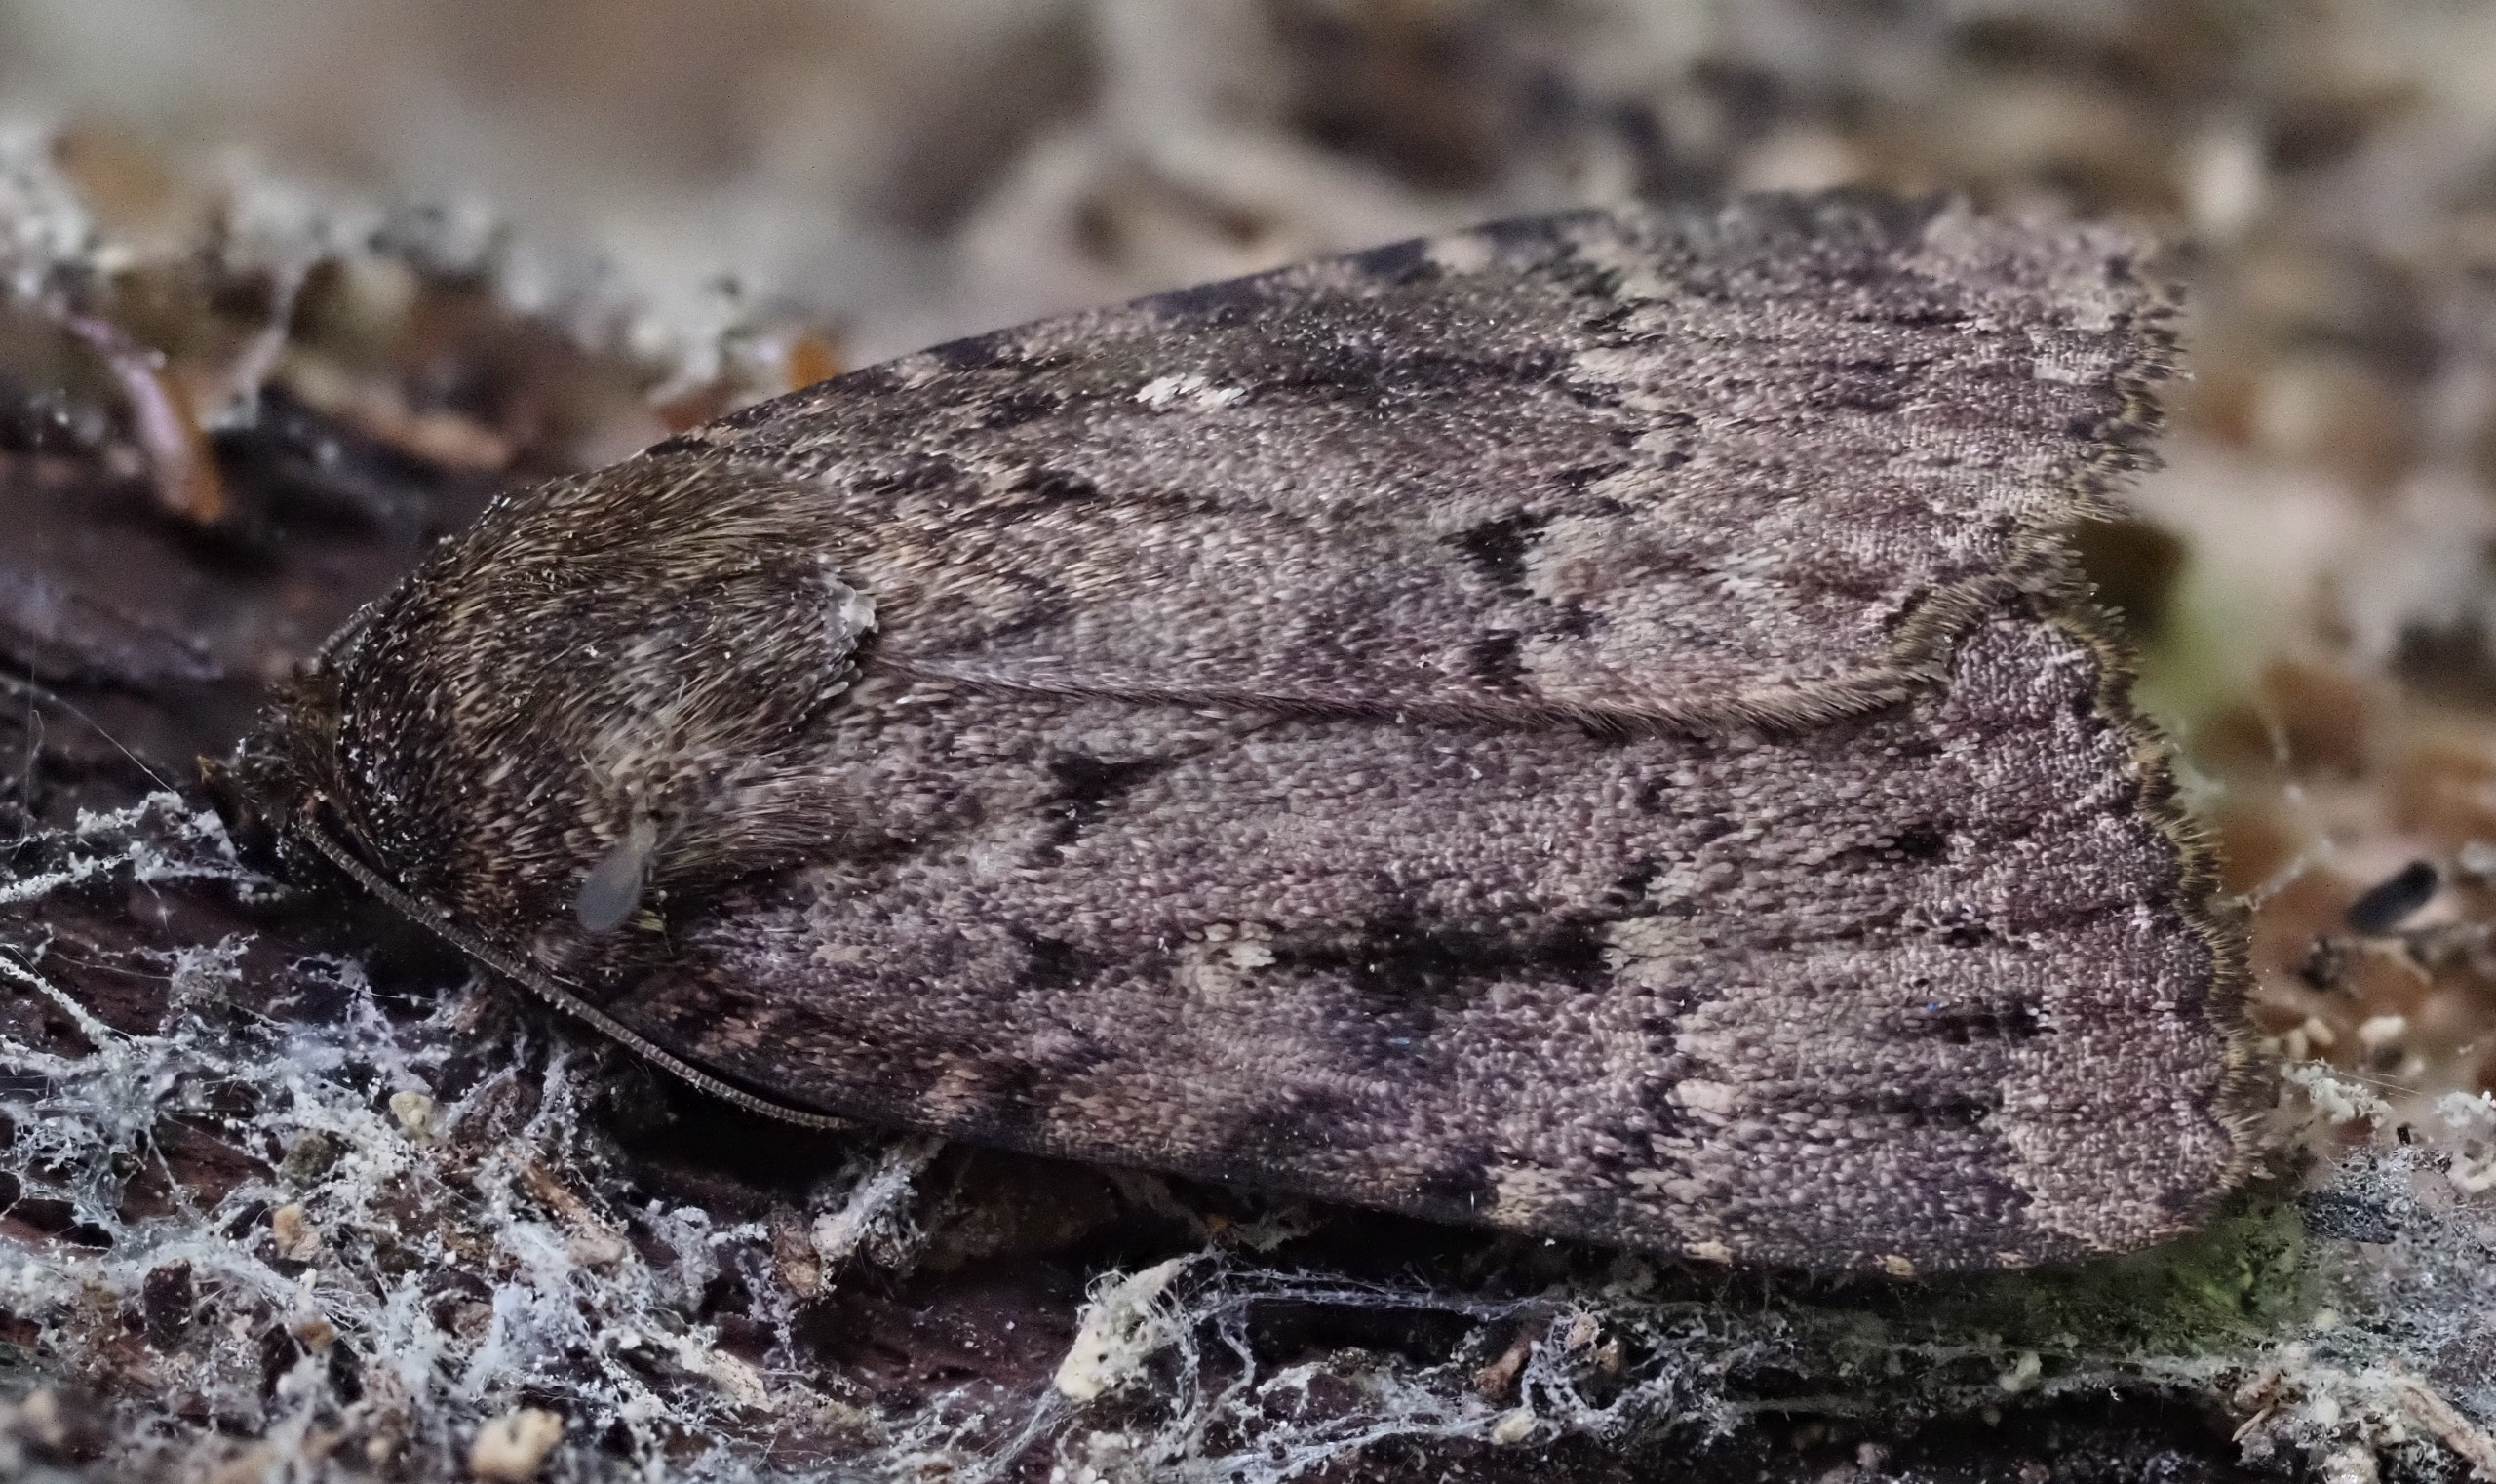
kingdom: Animalia
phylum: Arthropoda
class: Insecta
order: Lepidoptera
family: Noctuidae
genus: Amphipyra
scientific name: Amphipyra pyramidea
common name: Pyramideugle
